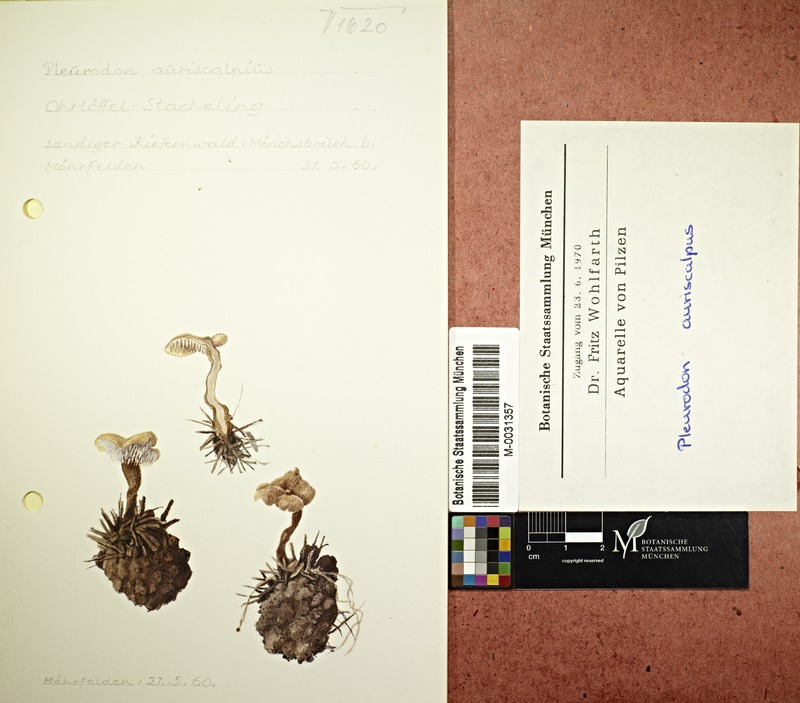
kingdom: Fungi
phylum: Basidiomycota
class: Agaricomycetes
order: Russulales
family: Auriscalpiaceae
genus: Auriscalpium
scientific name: Auriscalpium vulgare
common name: Earpick fungus
